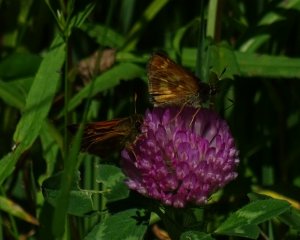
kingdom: Animalia
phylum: Arthropoda
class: Insecta
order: Lepidoptera
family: Hesperiidae
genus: Polites
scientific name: Polites
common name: Long Dash Skipper
